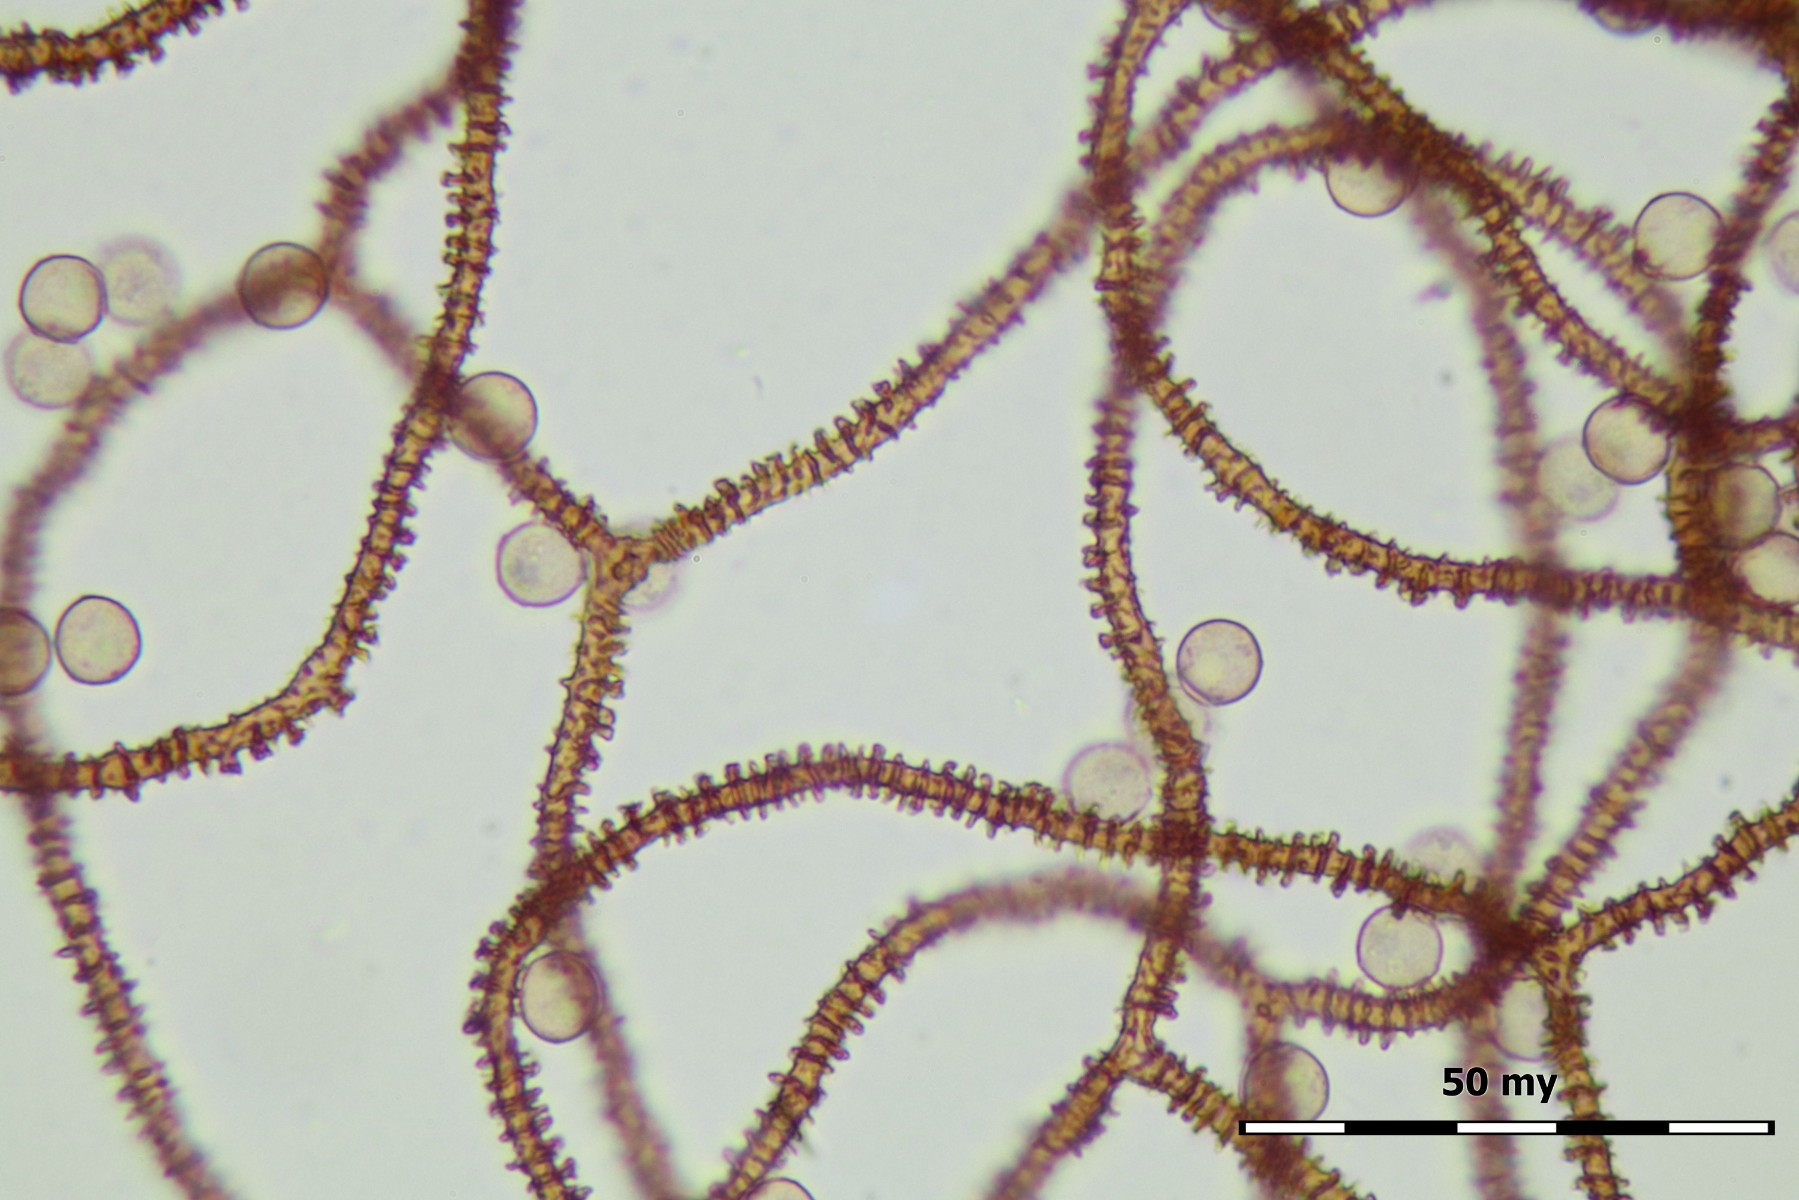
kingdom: Protozoa
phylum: Mycetozoa
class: Myxomycetes
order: Trichiales
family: Arcyriaceae
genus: Arcyria
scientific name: Arcyria affinis
